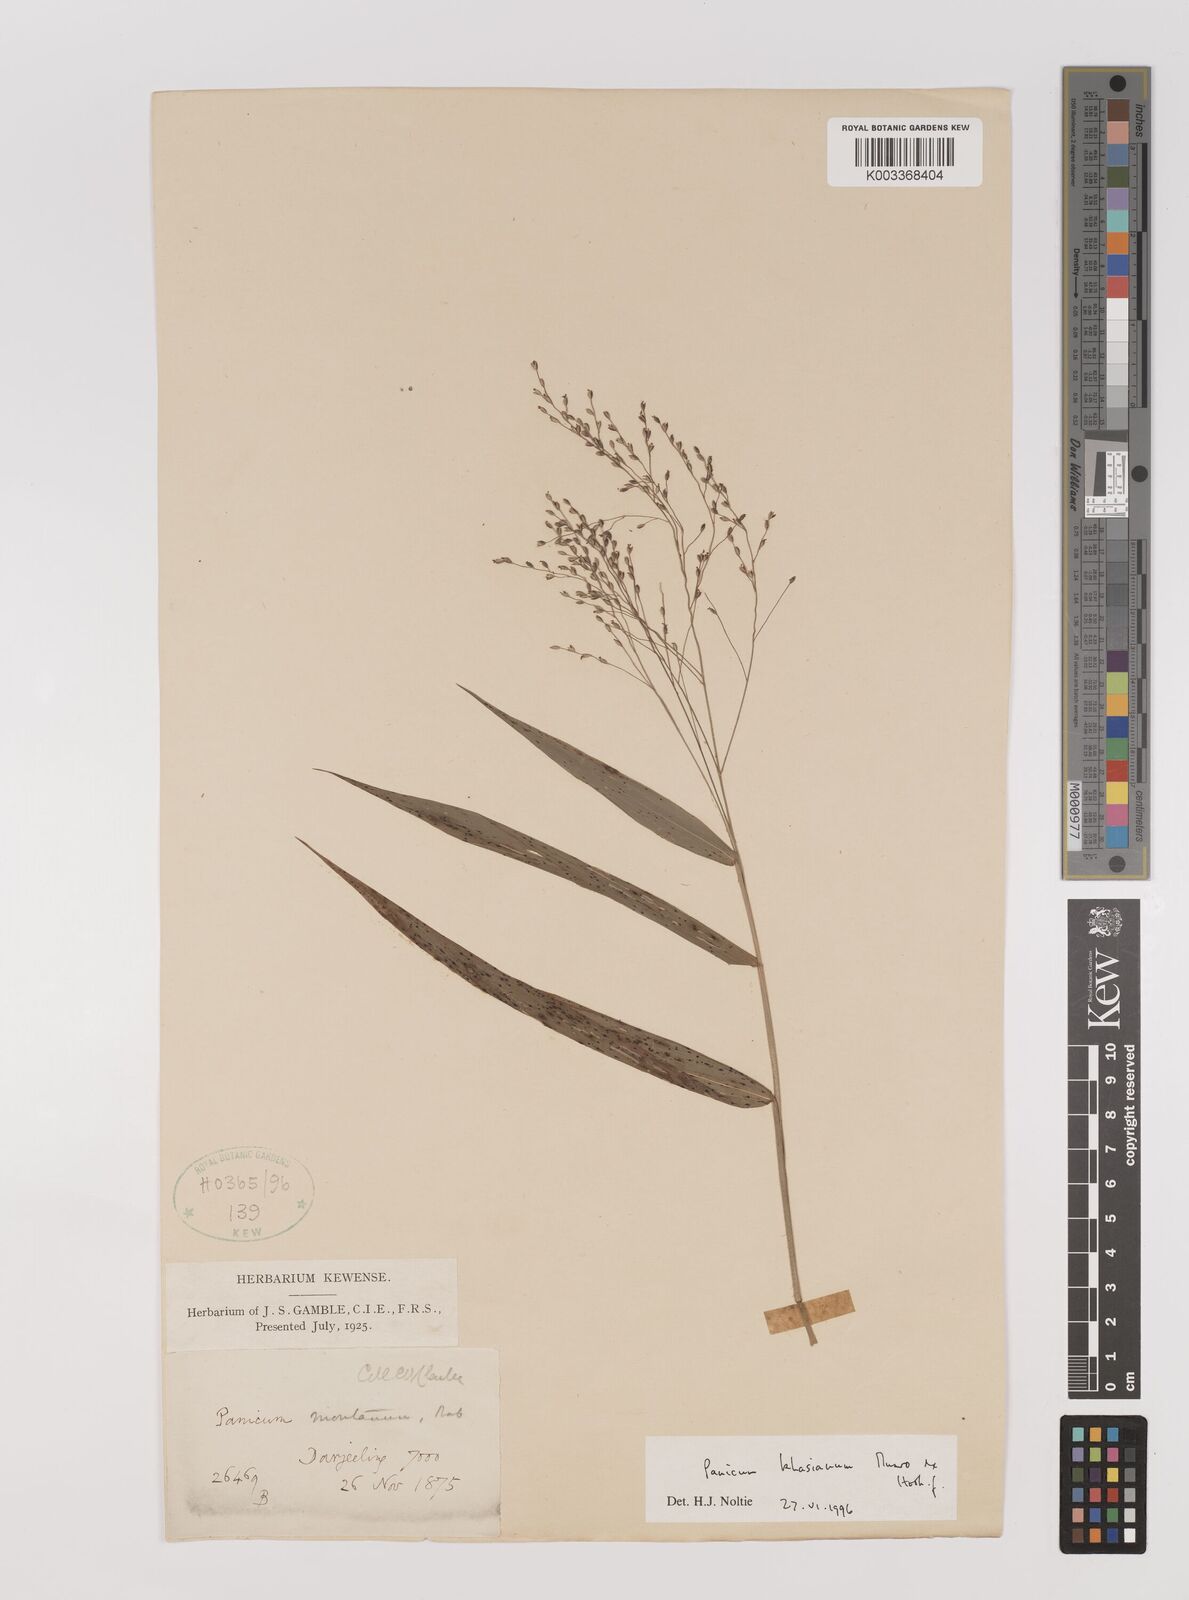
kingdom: Plantae
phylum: Tracheophyta
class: Liliopsida
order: Poales
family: Poaceae
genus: Panicum
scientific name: Panicum khasianum
